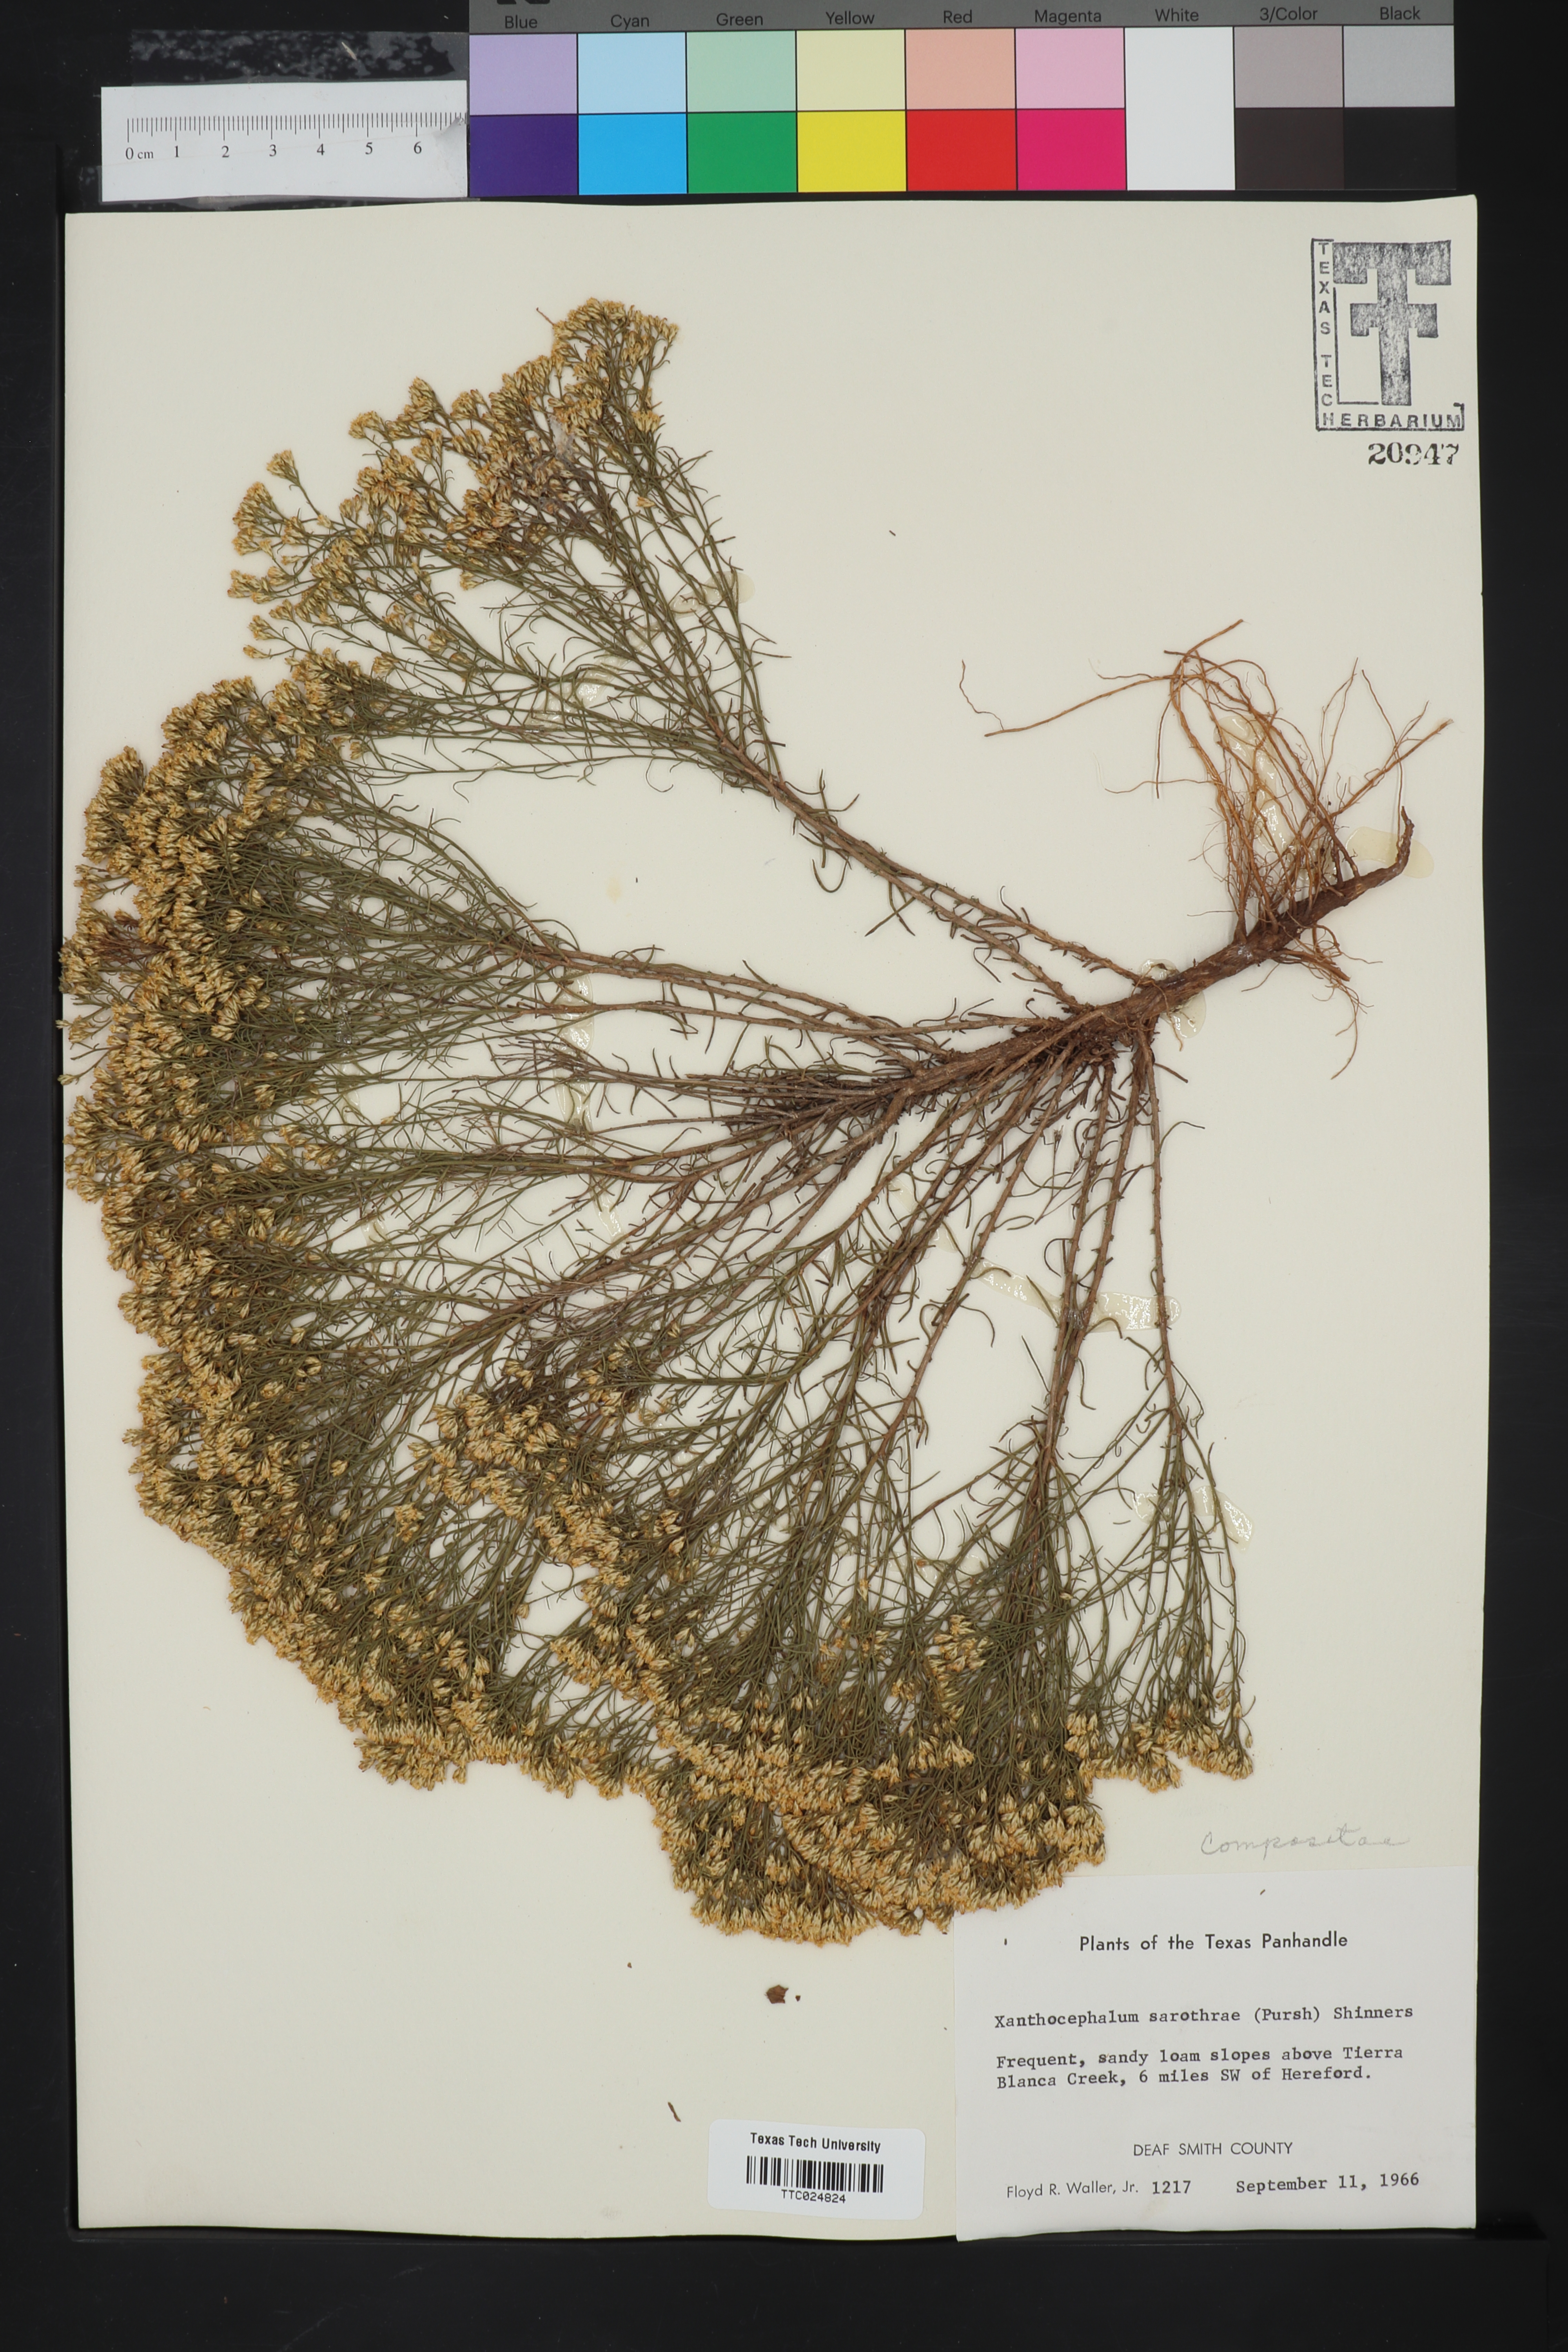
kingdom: Plantae
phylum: Tracheophyta
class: Magnoliopsida
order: Asterales
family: Asteraceae
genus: Gutierrezia
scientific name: Gutierrezia sarothrae
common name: Broom snakeweed
